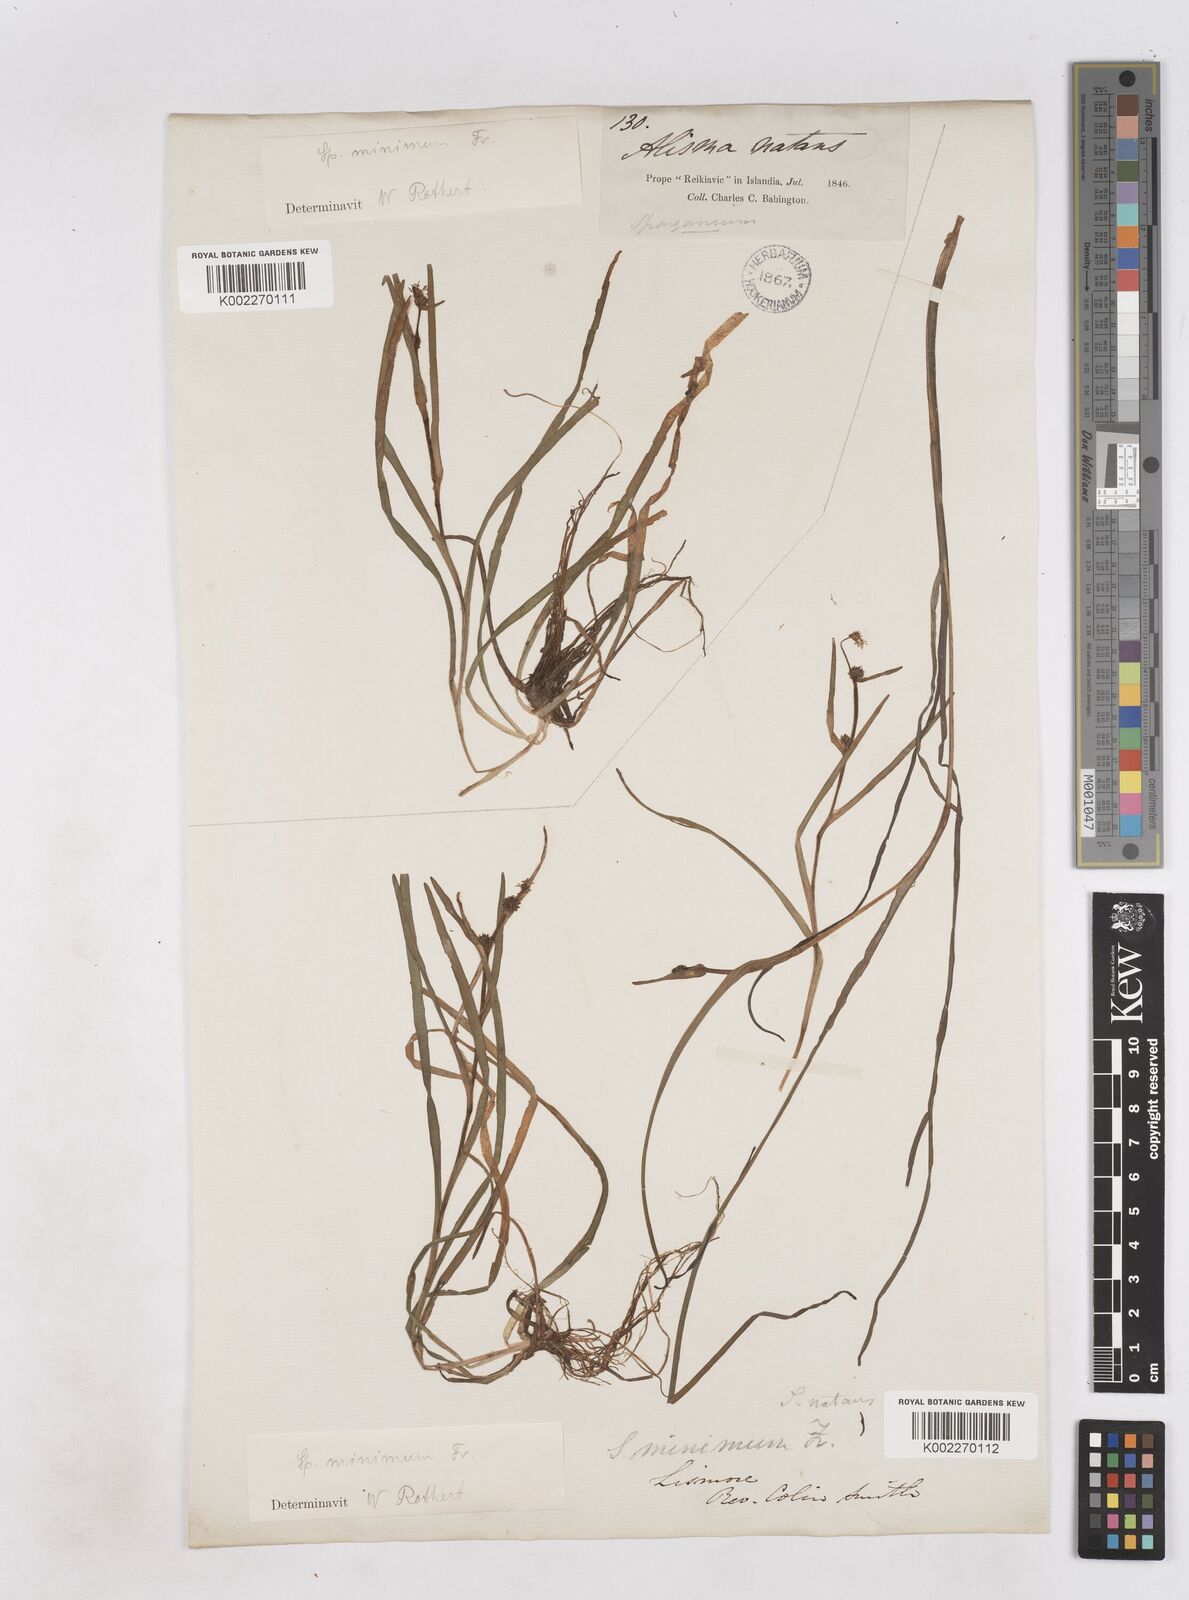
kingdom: Plantae
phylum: Tracheophyta
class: Liliopsida
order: Poales
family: Typhaceae
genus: Sparganium
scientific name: Sparganium natans
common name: Least bur-reed
